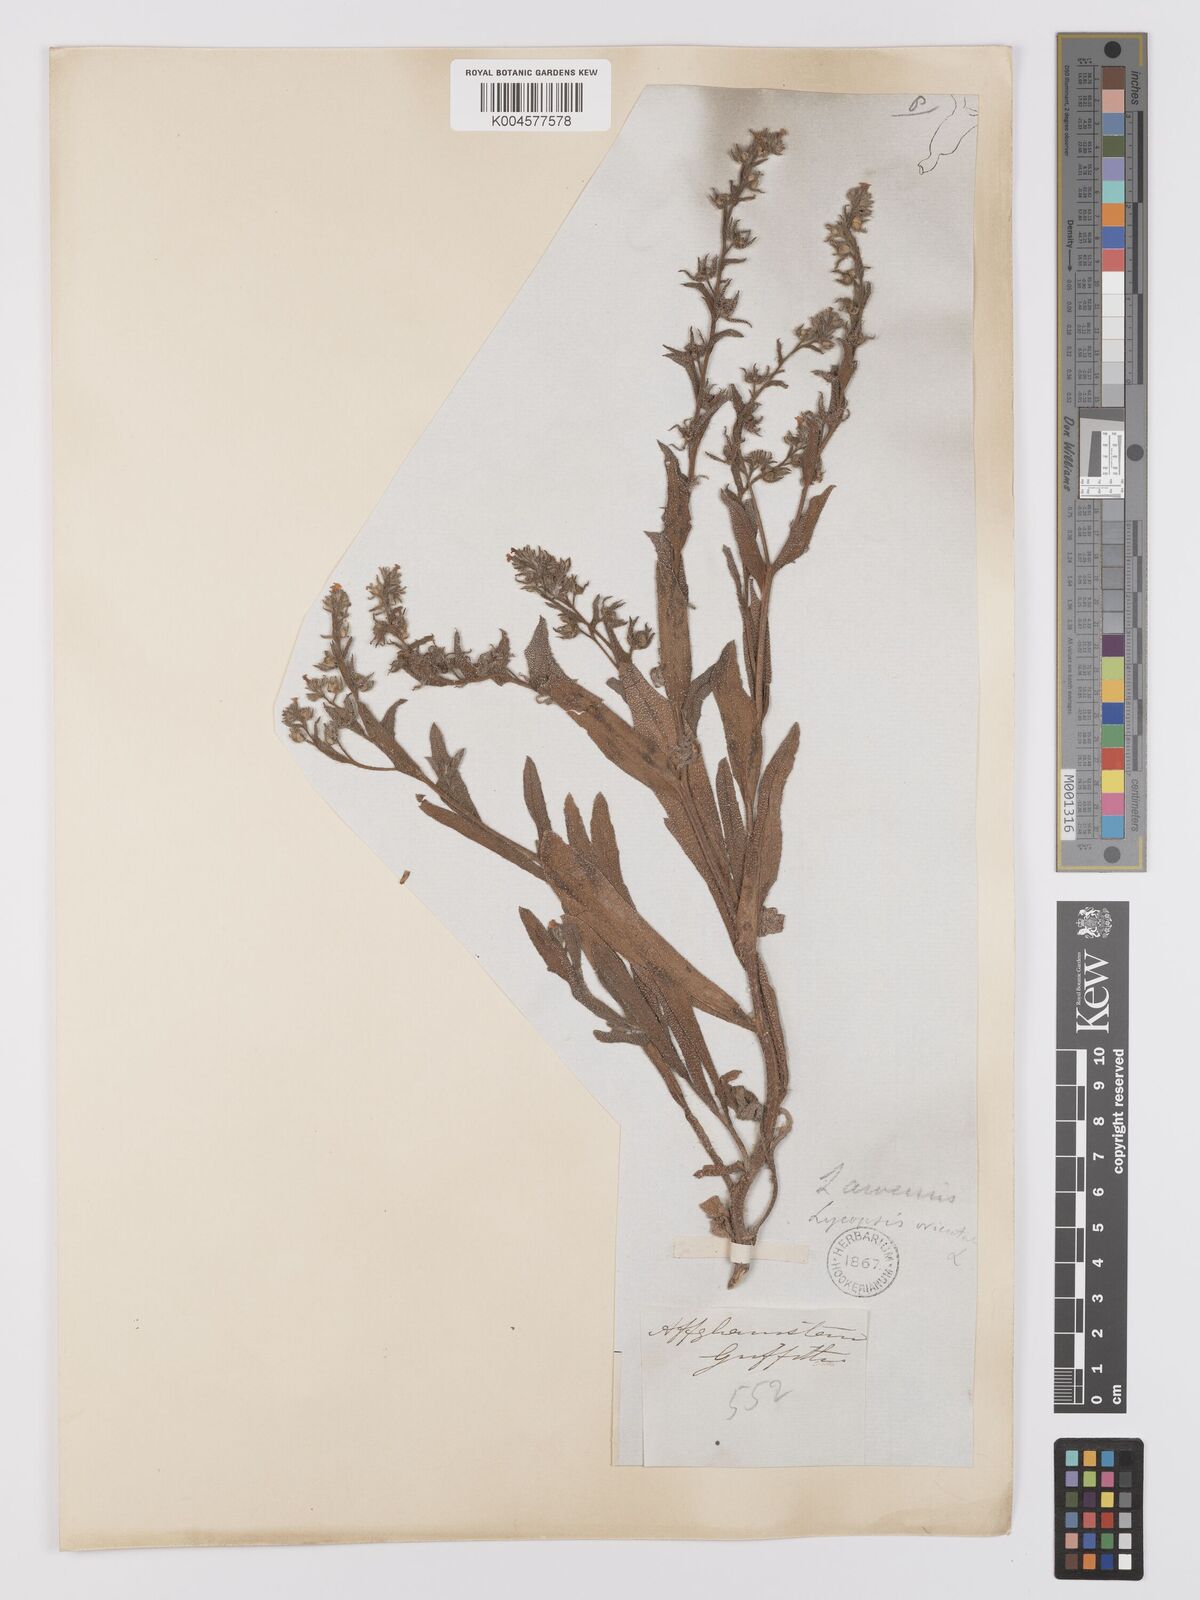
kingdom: Plantae
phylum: Tracheophyta
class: Magnoliopsida
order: Boraginales
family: Boraginaceae
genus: Lycopsis
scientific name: Lycopsis arvensis
